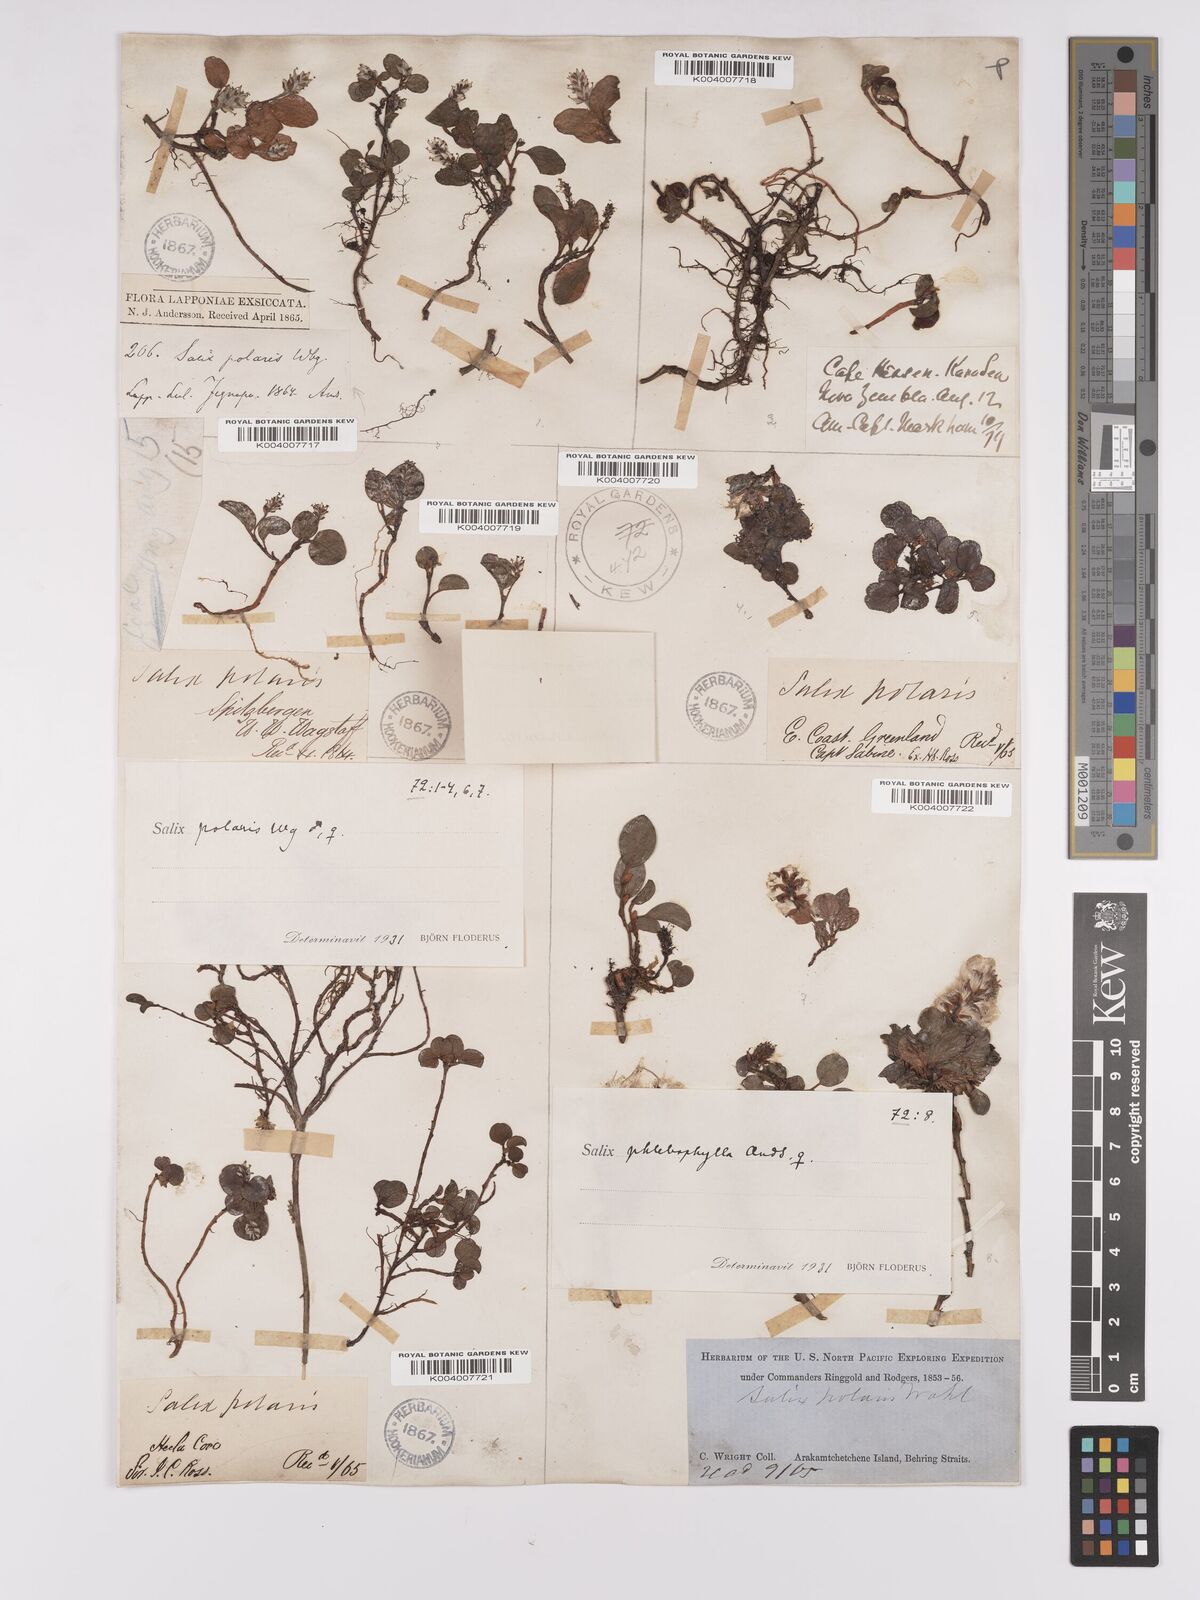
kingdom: Plantae
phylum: Tracheophyta
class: Magnoliopsida
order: Malpighiales
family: Salicaceae
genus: Salix
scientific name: Salix polaris
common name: Polar willow
